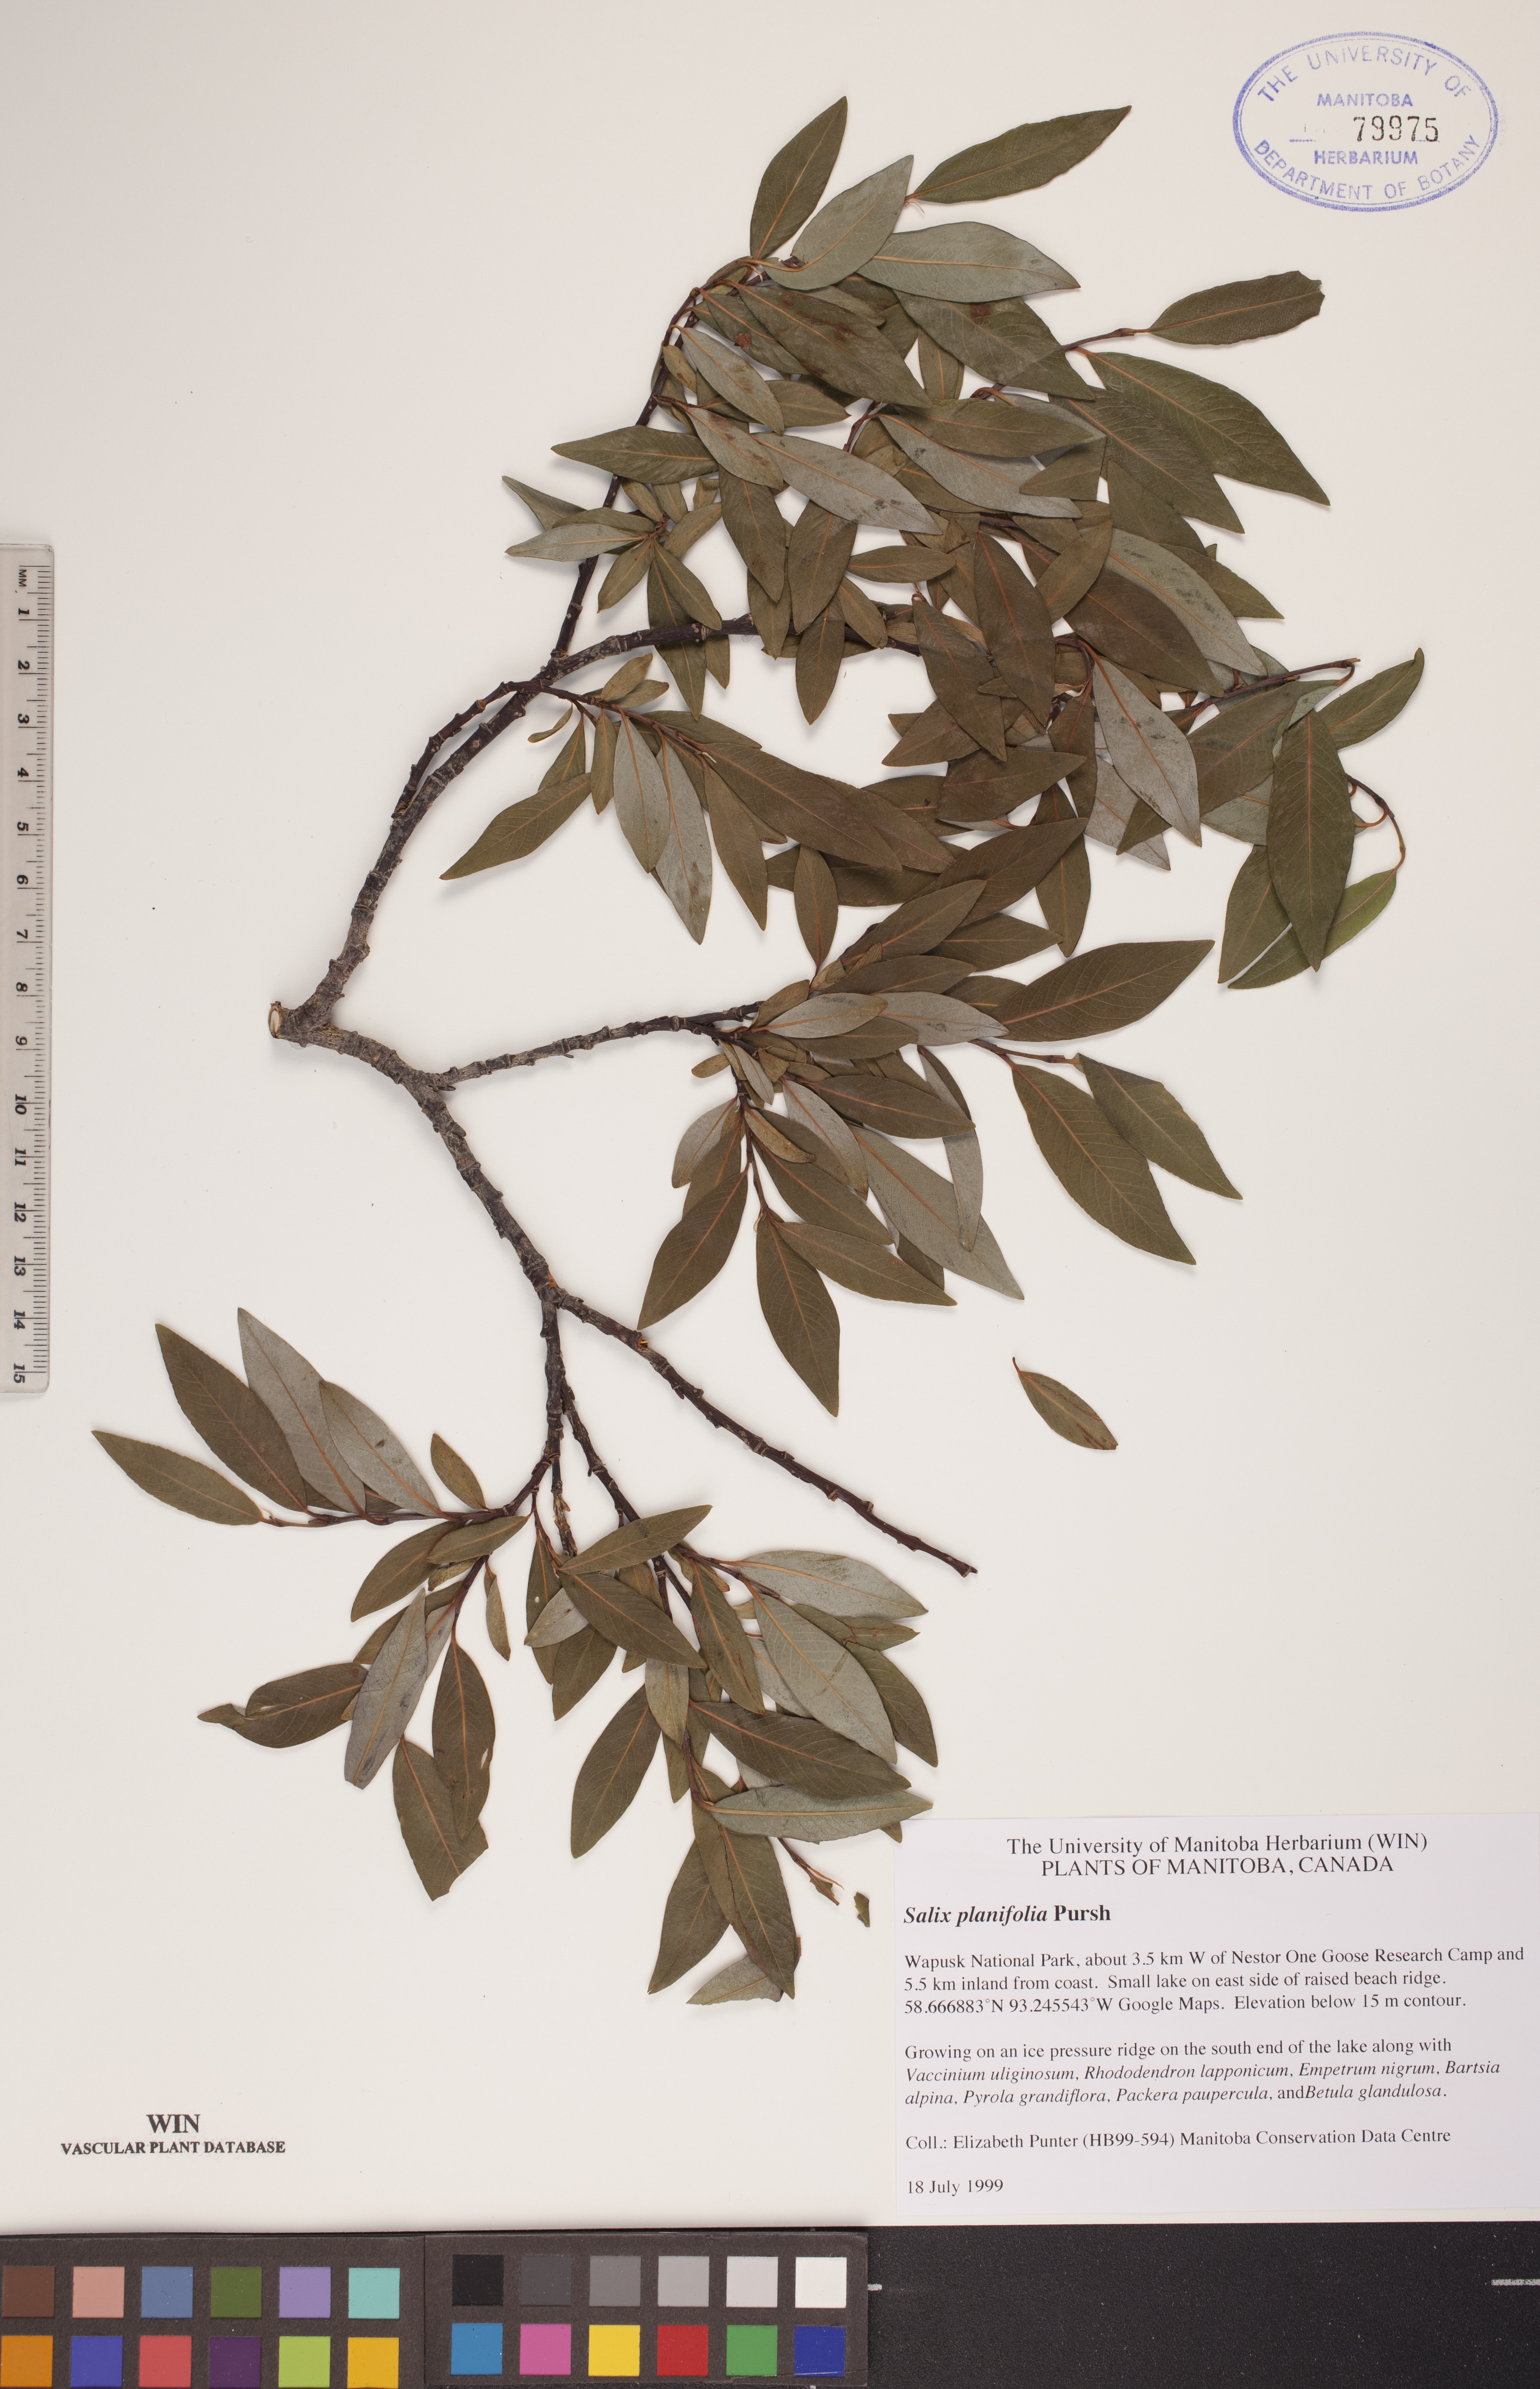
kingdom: Plantae
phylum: Tracheophyta
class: Magnoliopsida
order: Malpighiales
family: Salicaceae
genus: Salix
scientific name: Salix planifolia
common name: Mountain willow
